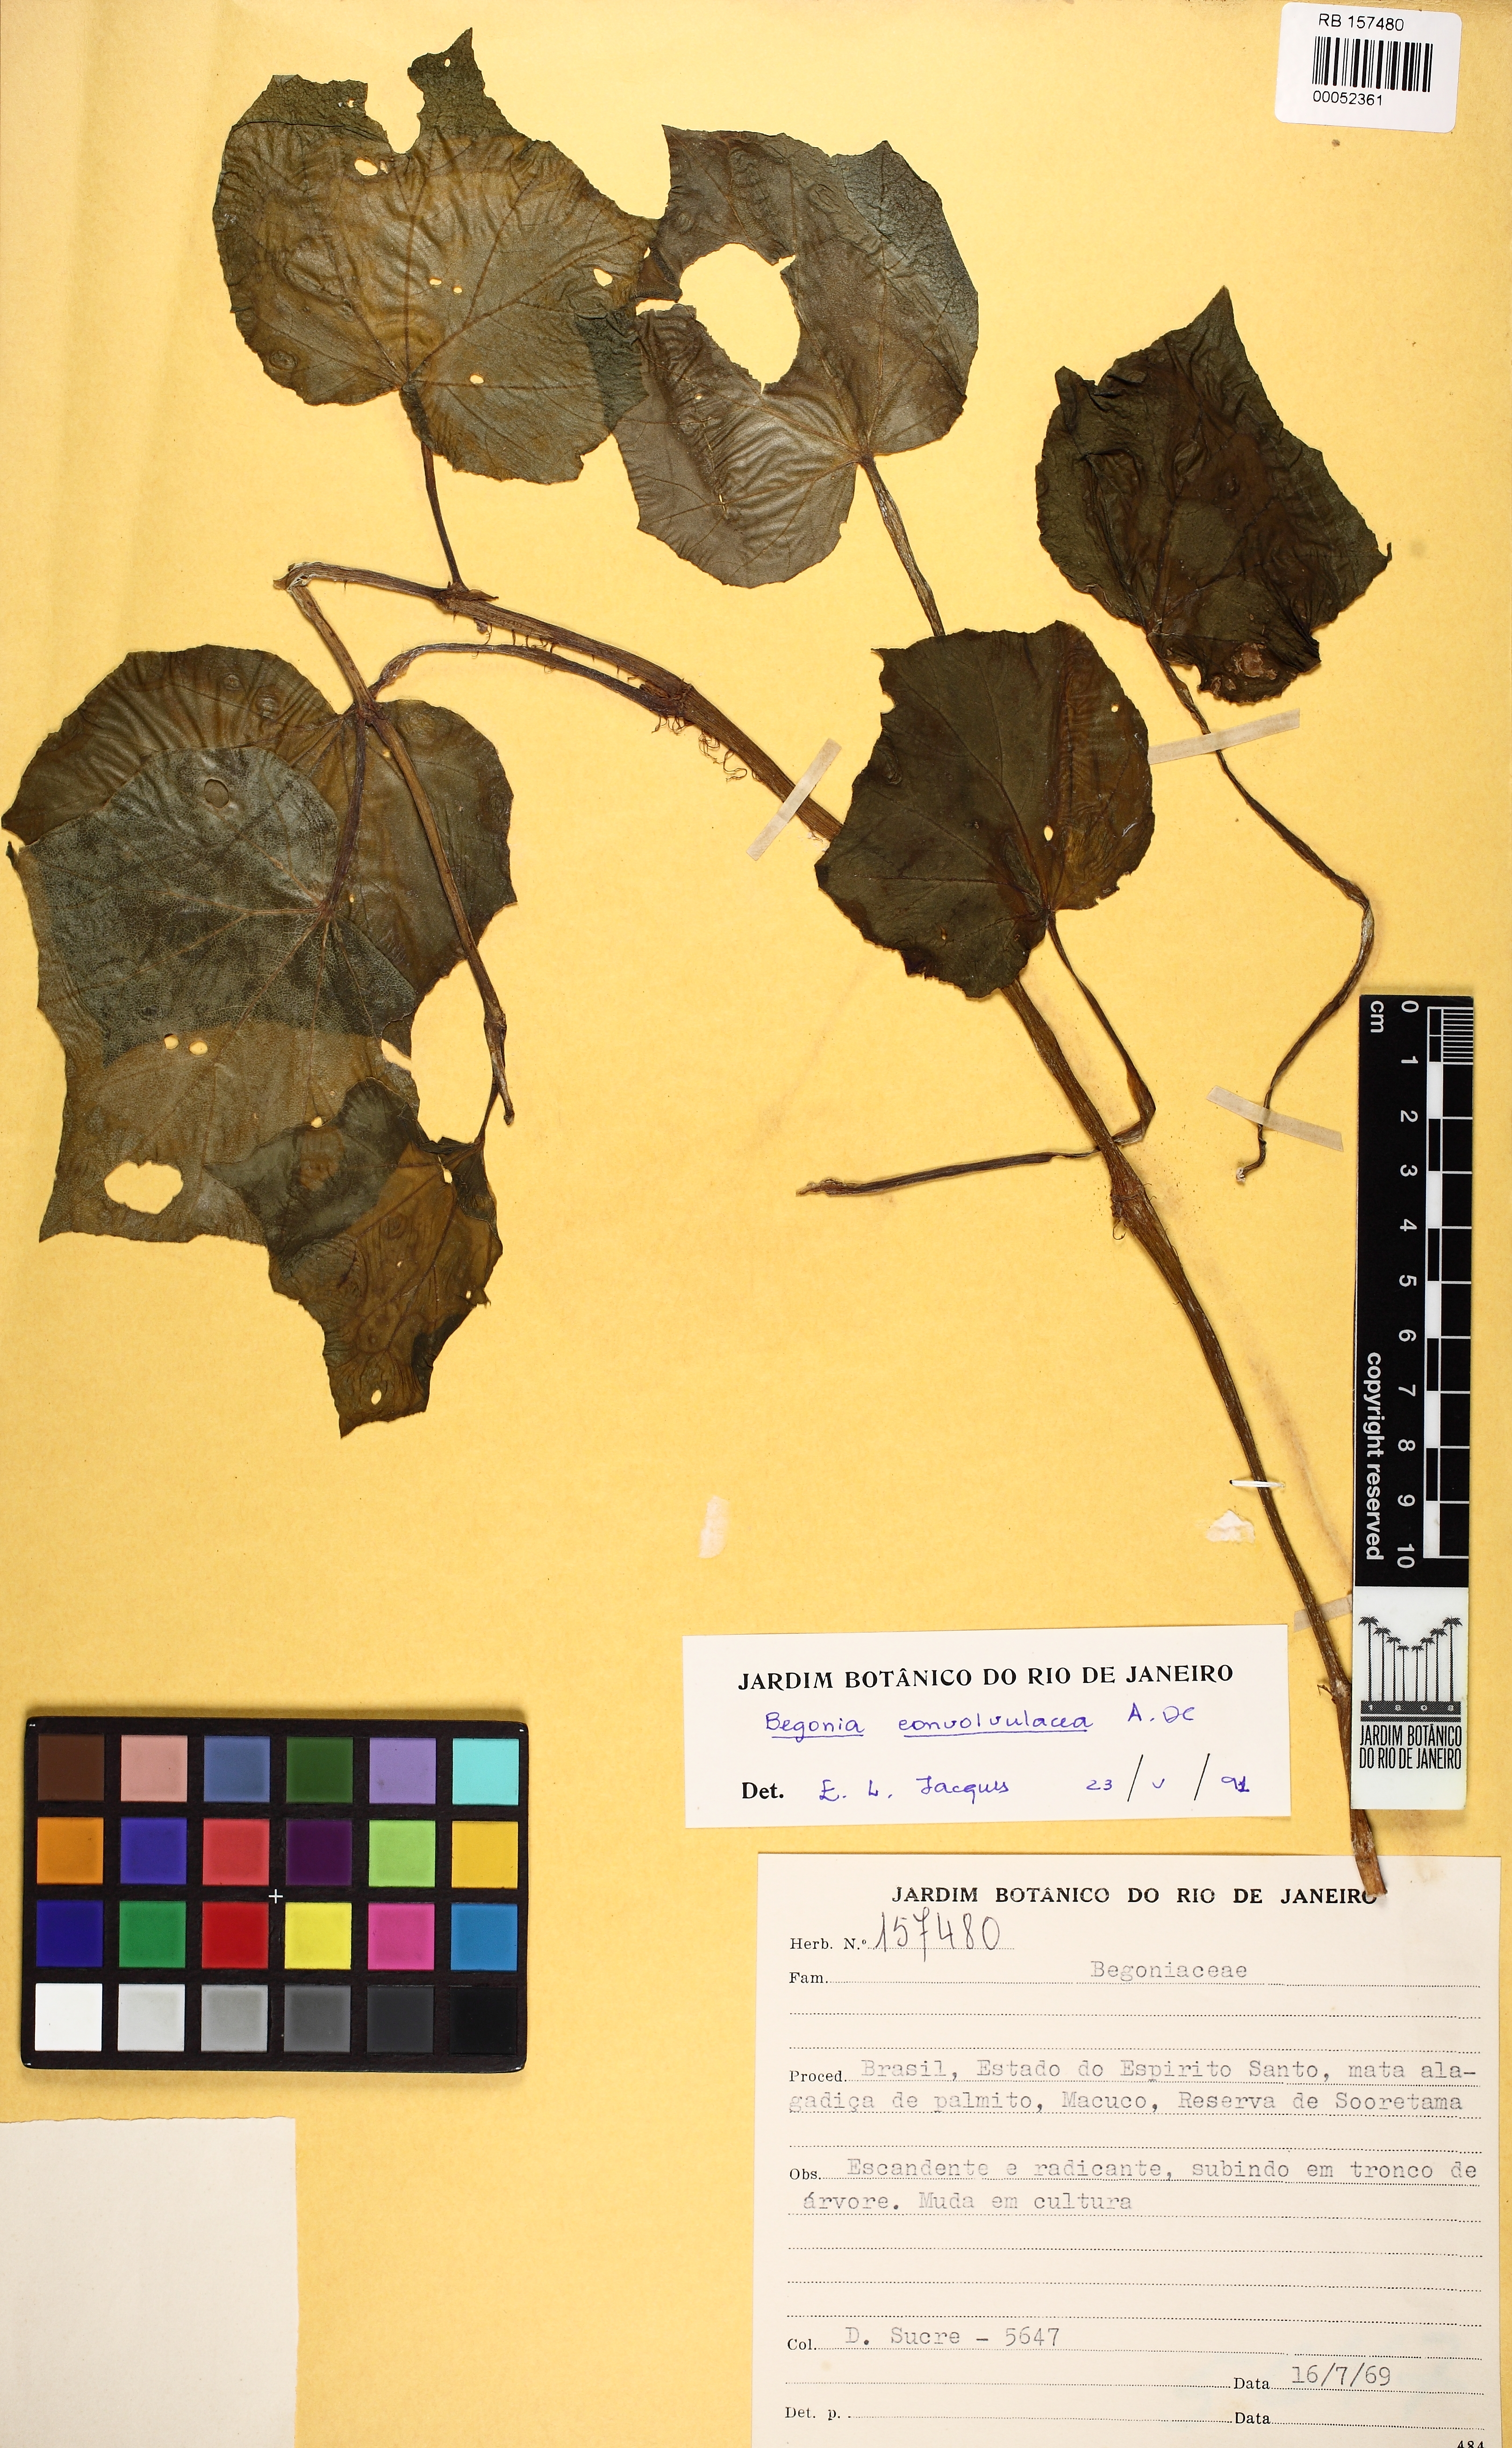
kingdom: Plantae
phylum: Tracheophyta
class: Magnoliopsida
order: Cucurbitales
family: Begoniaceae
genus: Begonia
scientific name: Begonia convolvulacea
